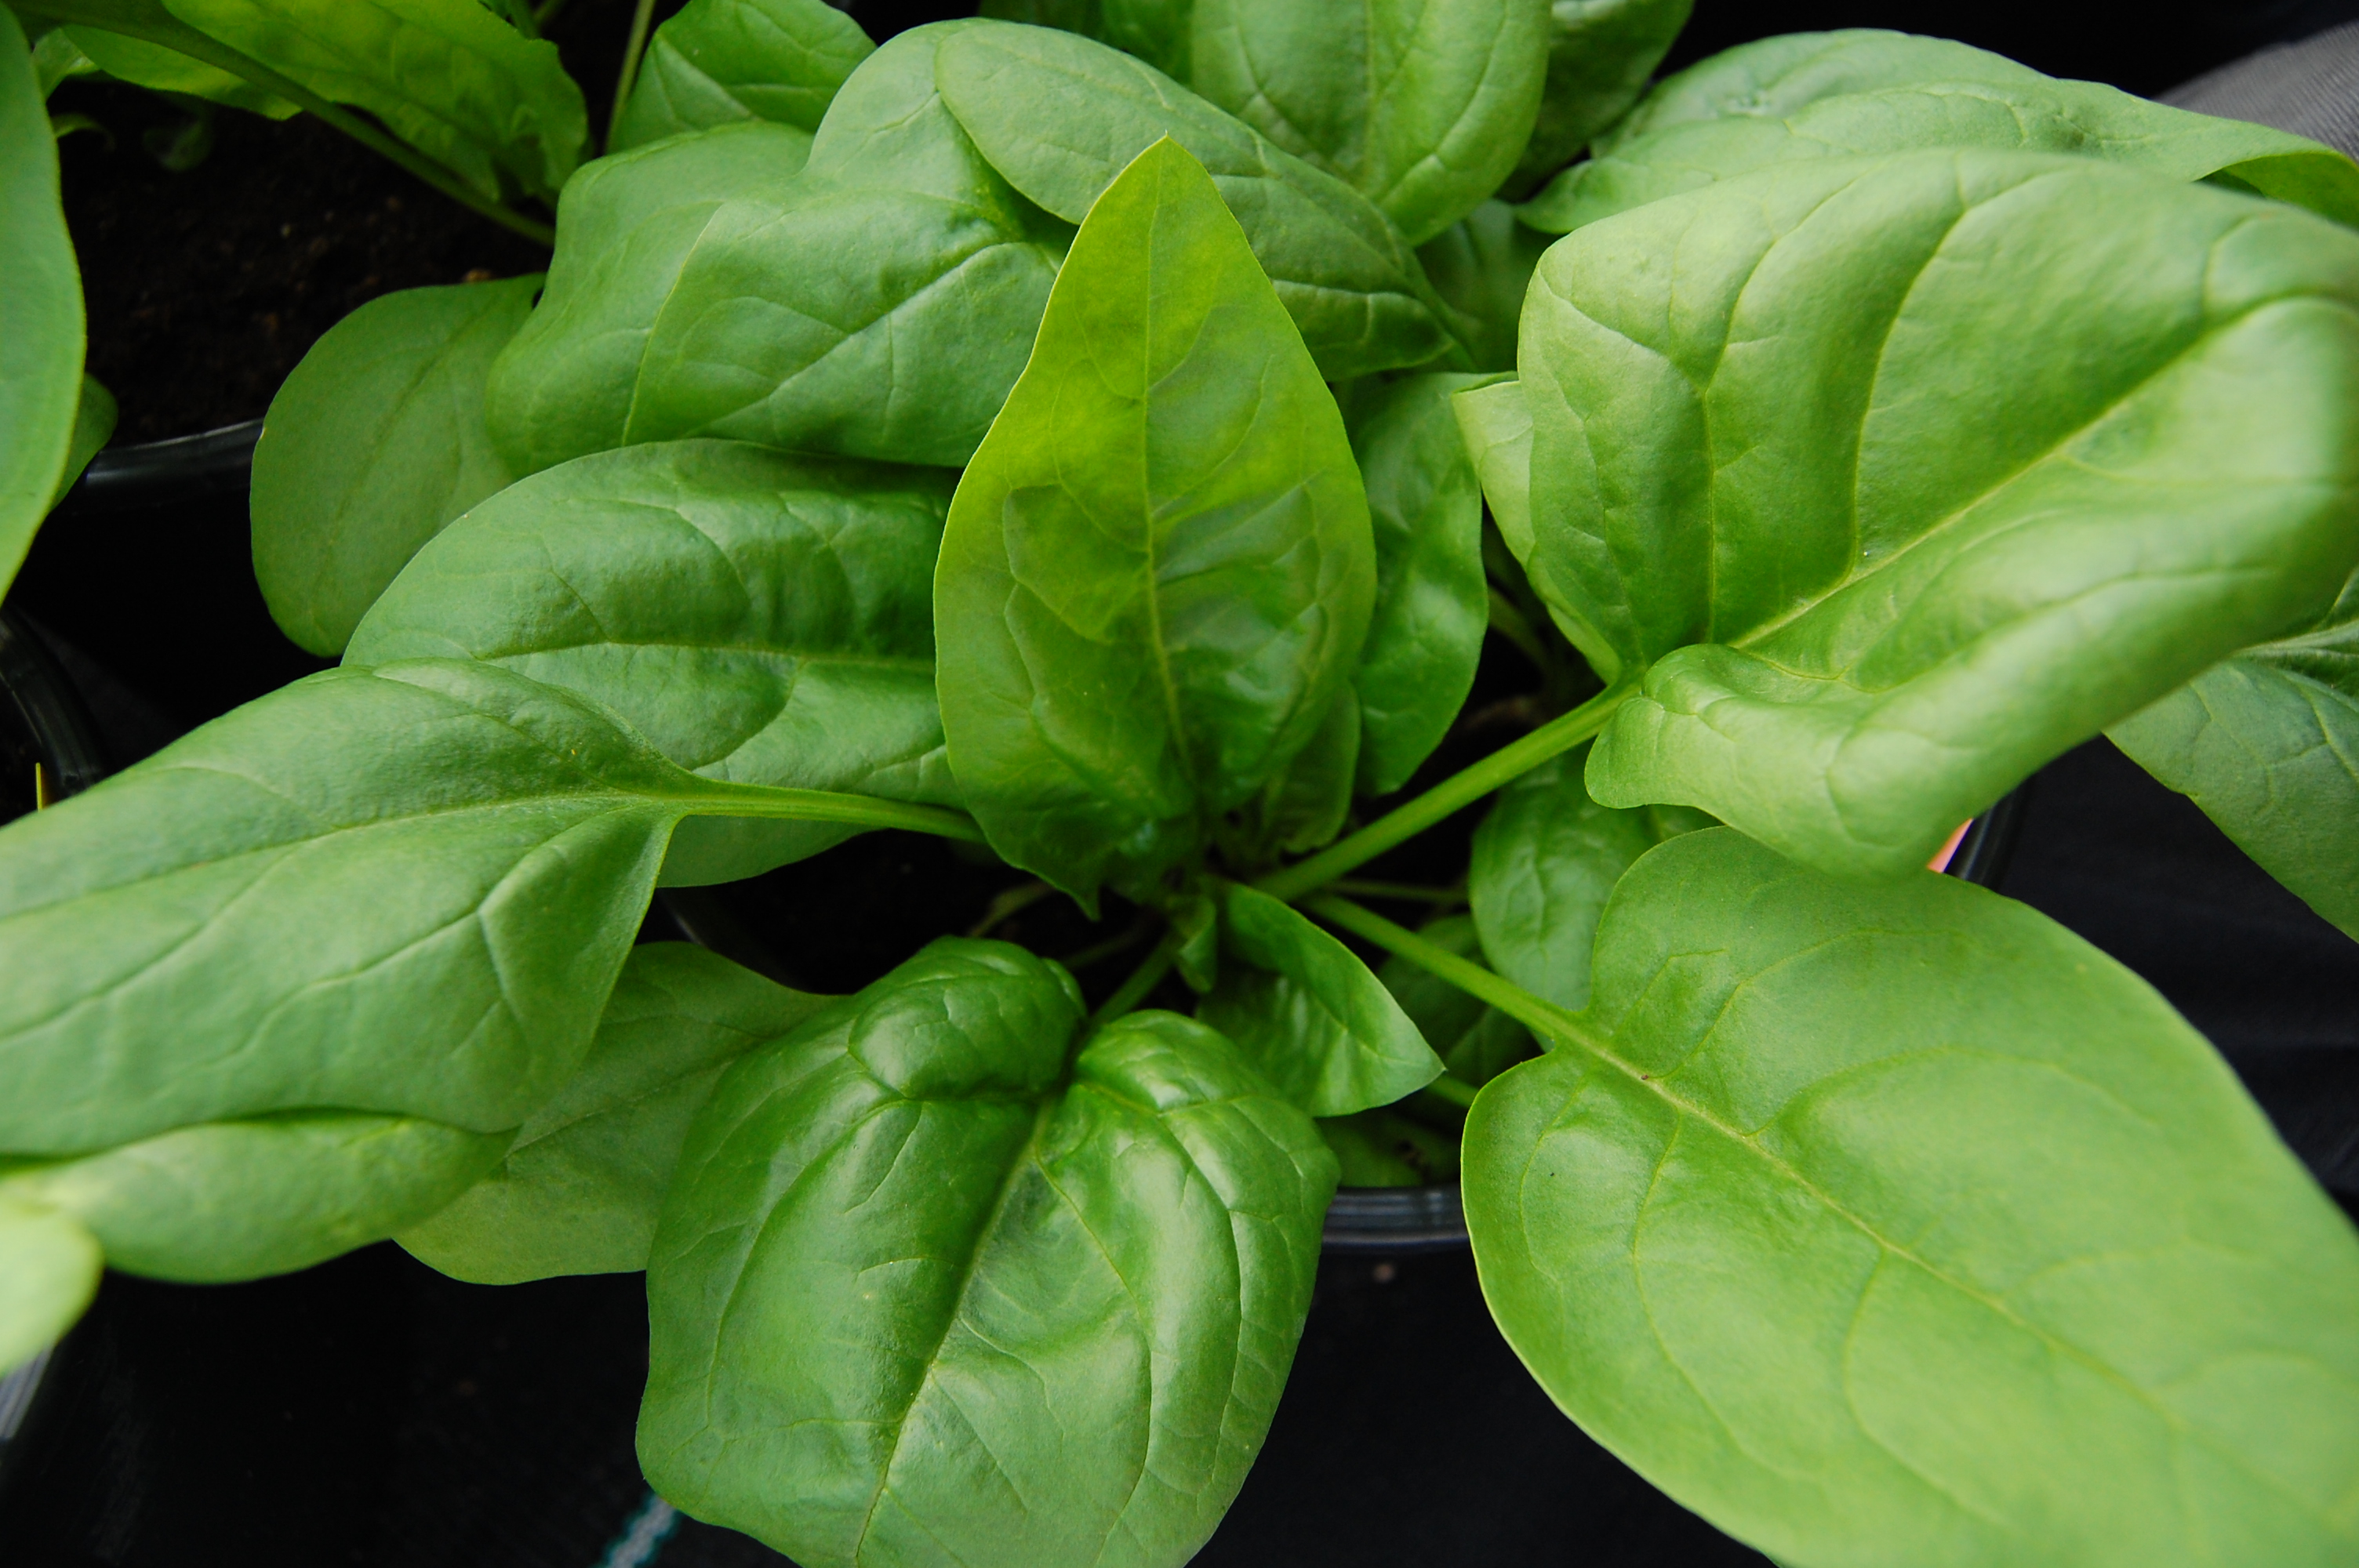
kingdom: Plantae
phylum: Tracheophyta
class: Magnoliopsida
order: Caryophyllales
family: Amaranthaceae
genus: Spinacia
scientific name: Spinacia oleracea
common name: Spinach
